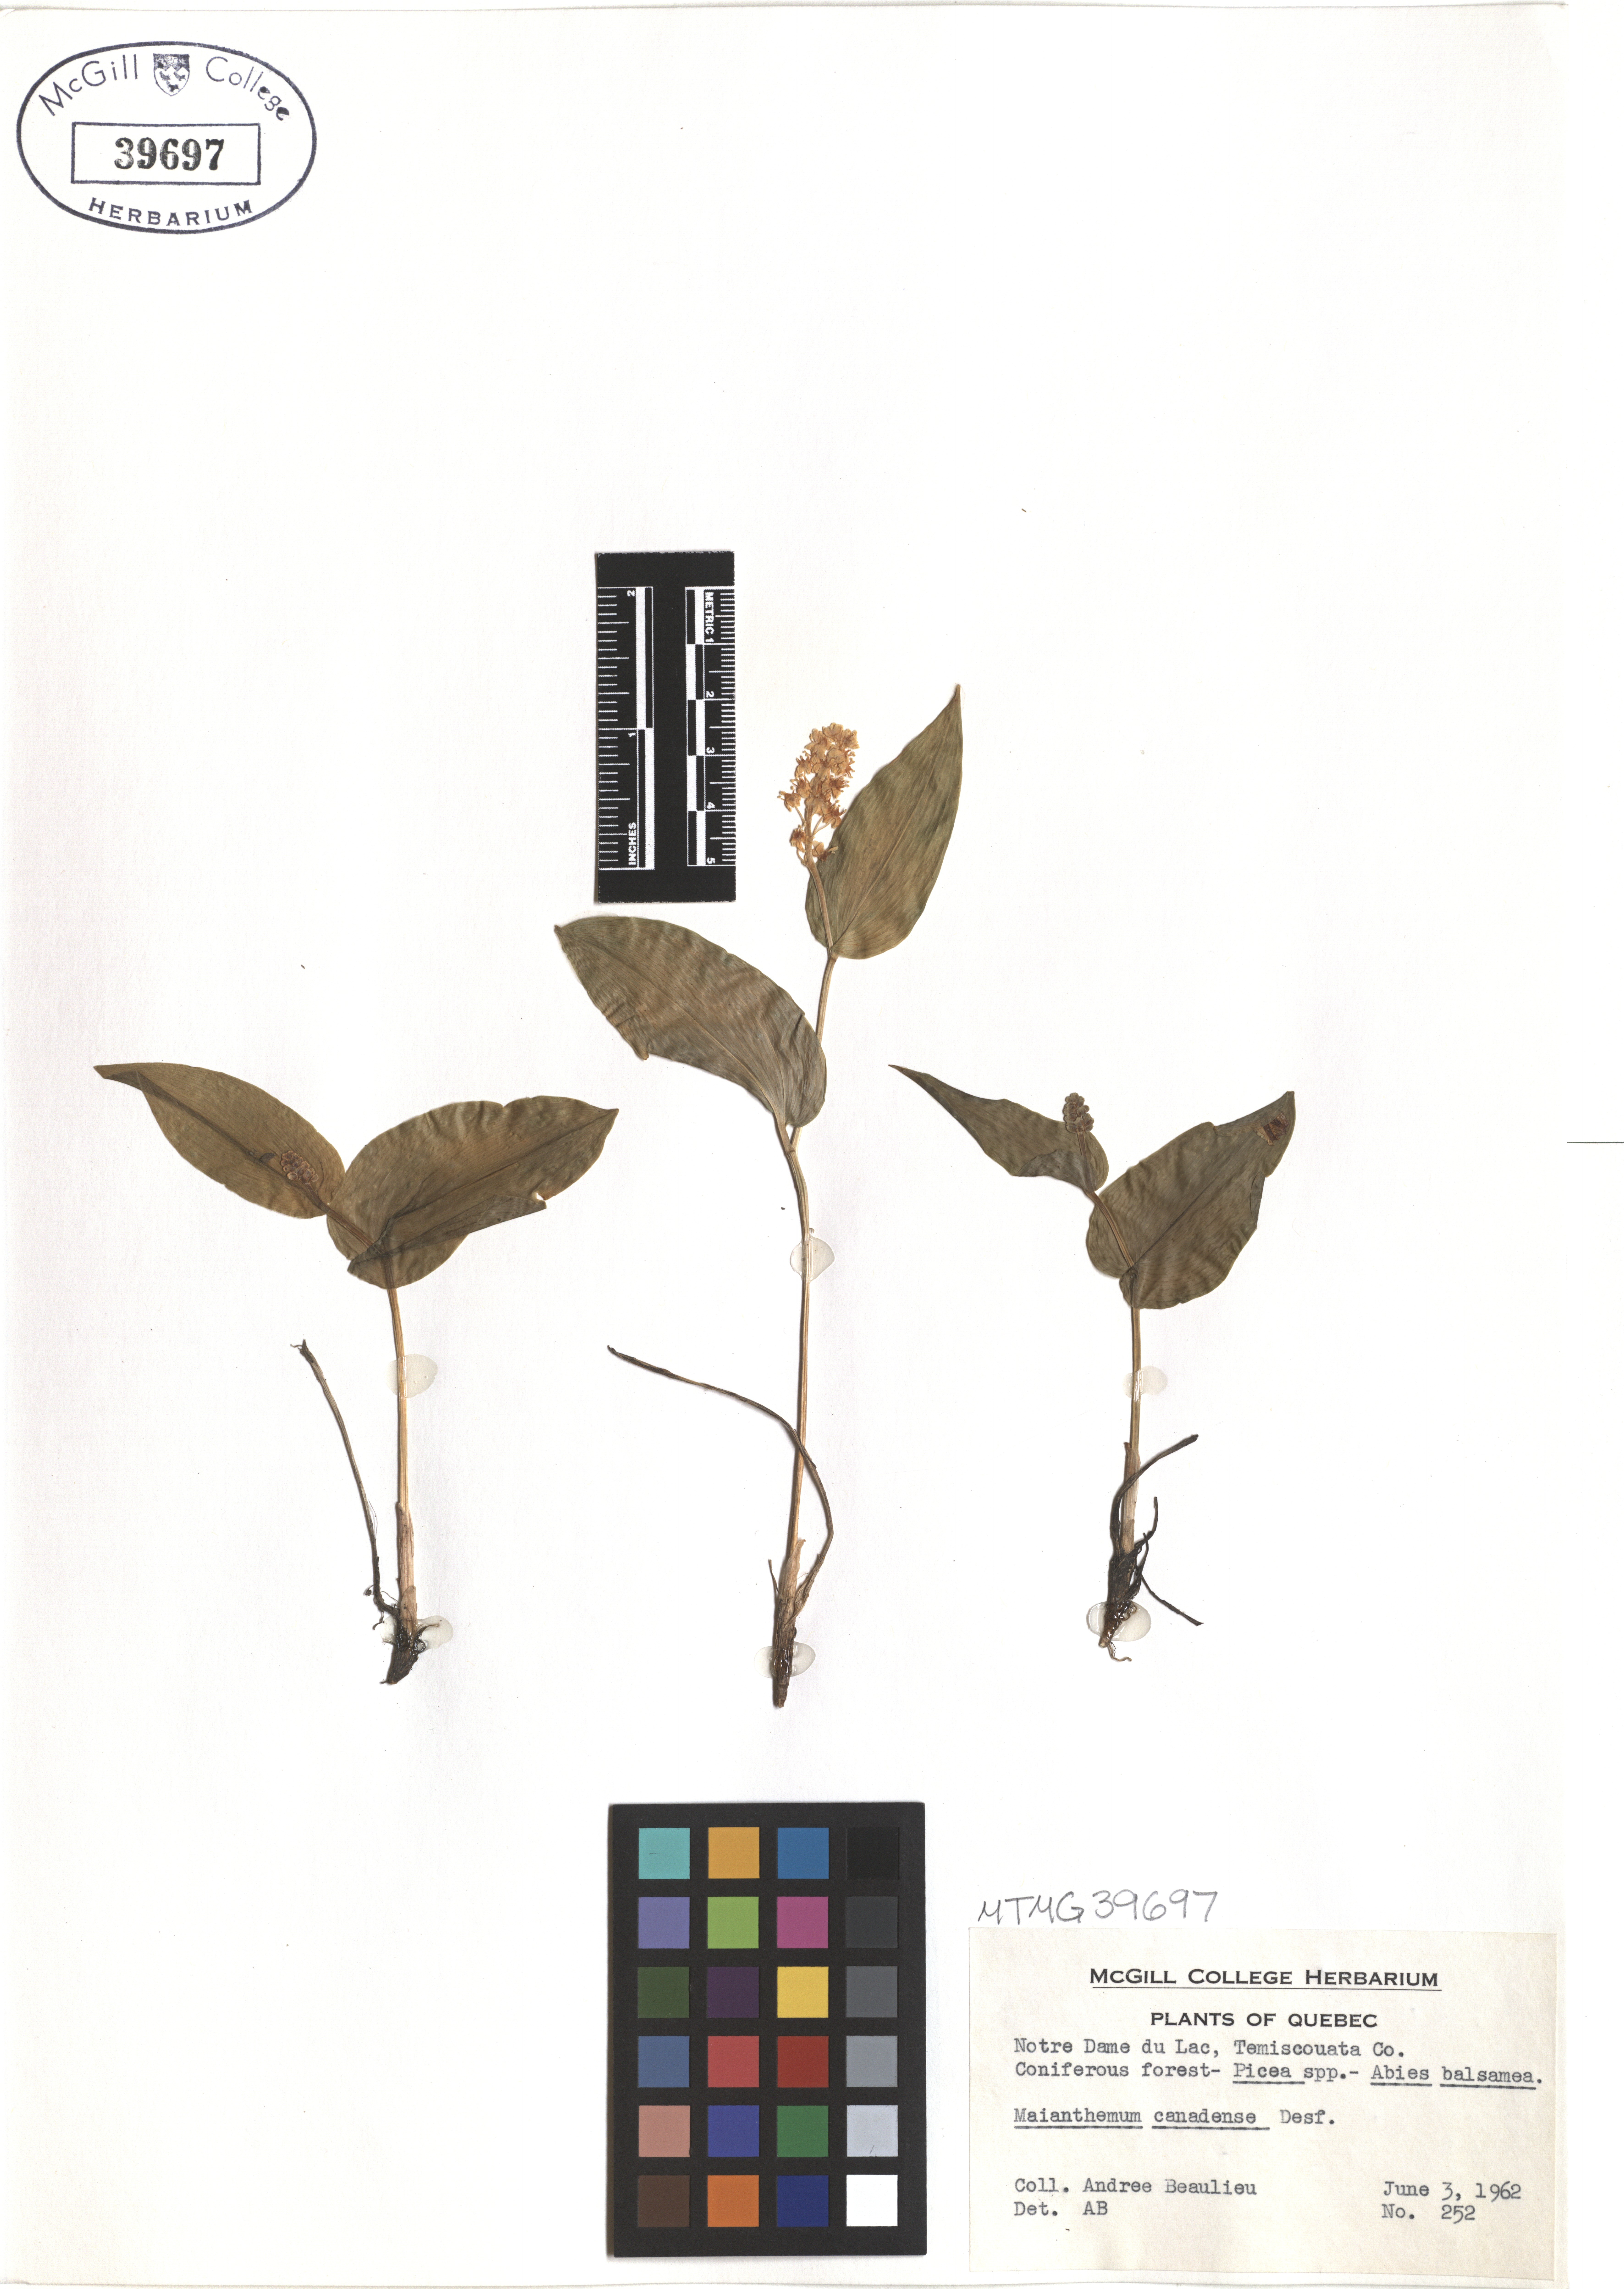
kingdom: Plantae
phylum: Tracheophyta
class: Liliopsida
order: Asparagales
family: Asparagaceae
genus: Maianthemum
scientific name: Maianthemum canadense
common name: False lily-of-the-valley
